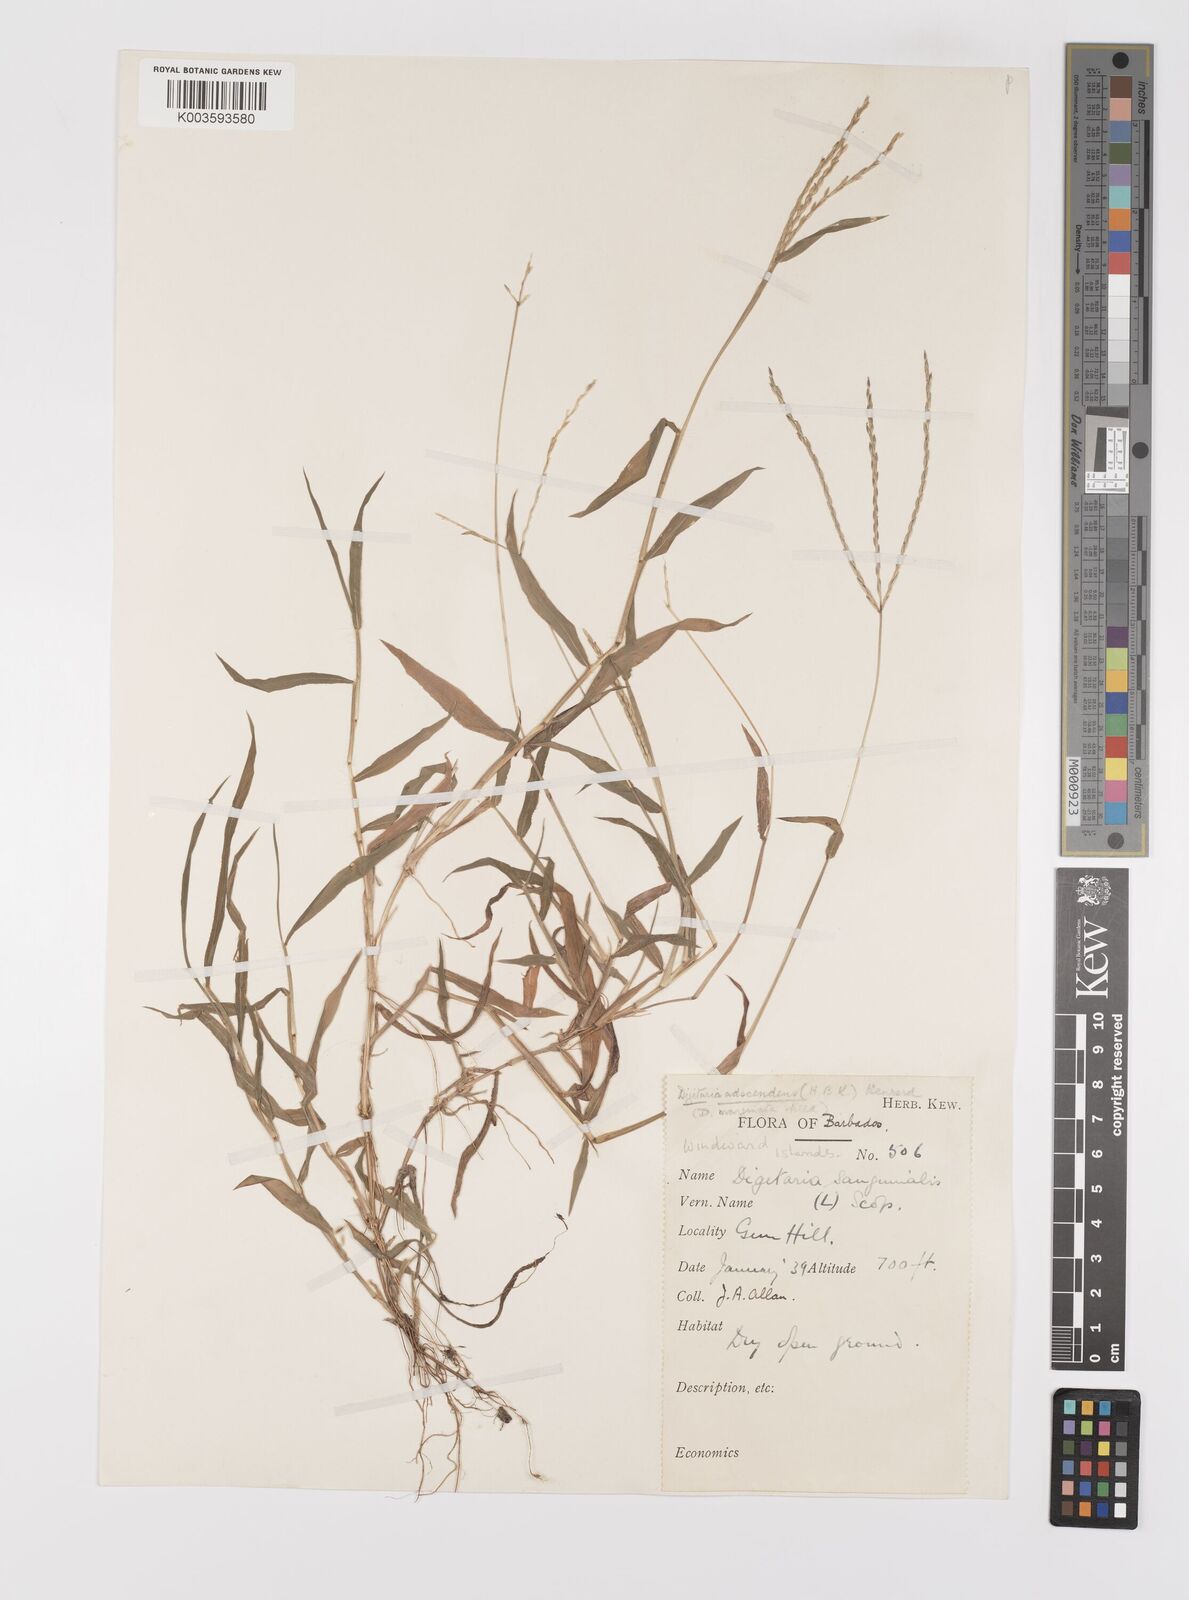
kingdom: Plantae
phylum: Tracheophyta
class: Liliopsida
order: Poales
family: Poaceae
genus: Digitaria
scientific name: Digitaria ciliaris
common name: Tropical finger-grass
